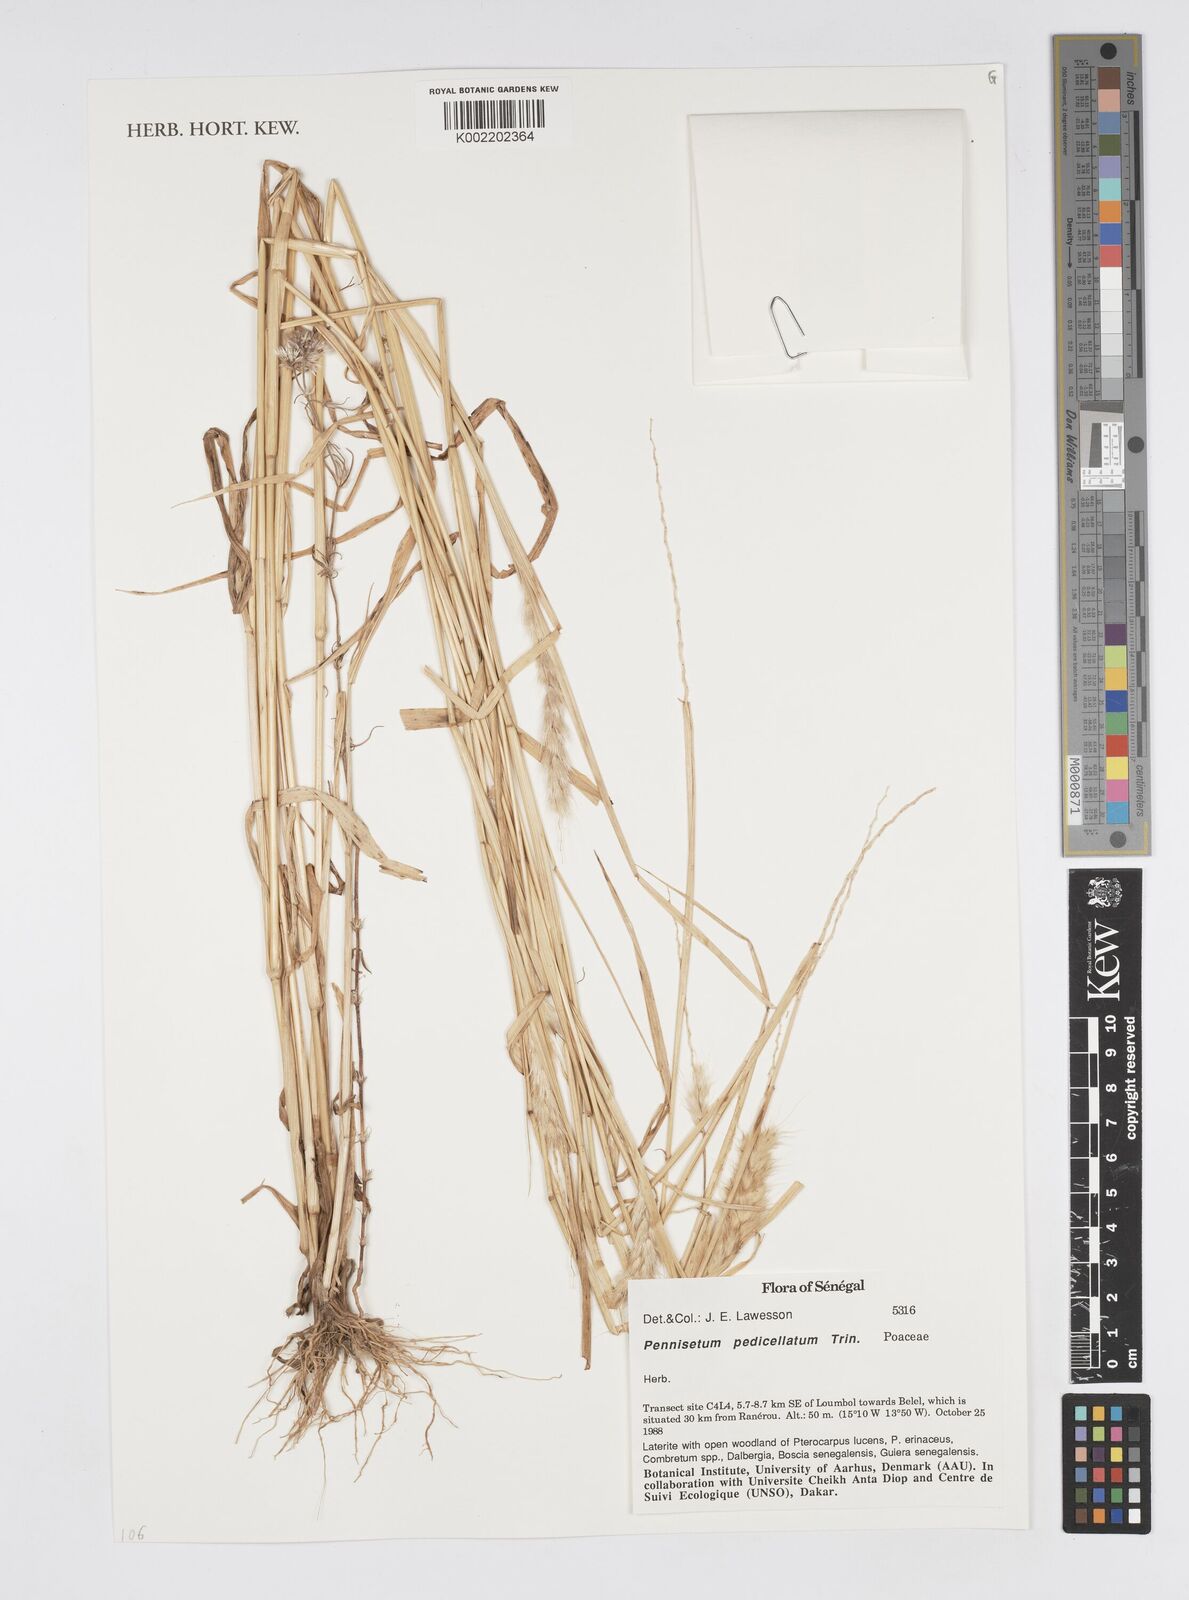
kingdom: Plantae
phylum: Tracheophyta
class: Liliopsida
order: Poales
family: Poaceae
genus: Cenchrus
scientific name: Cenchrus pedicellatus
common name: Hairy fountain grass
